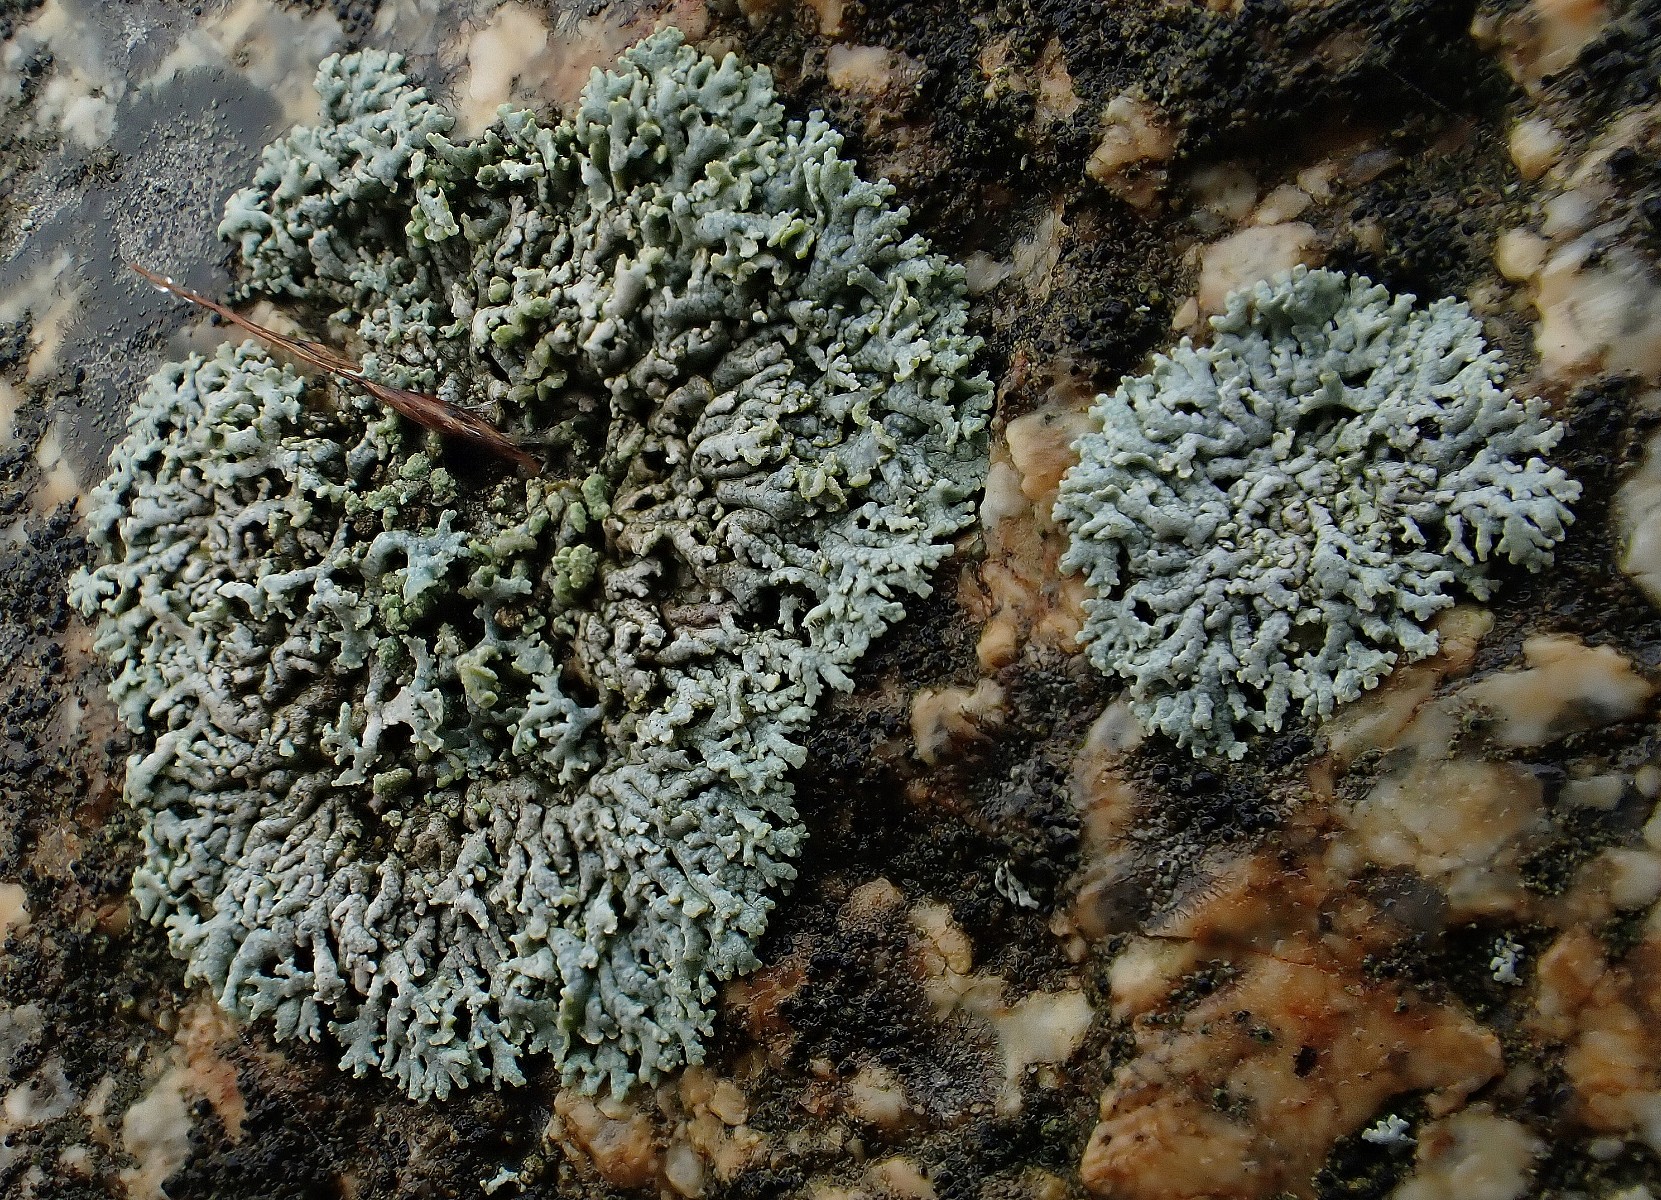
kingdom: Fungi
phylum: Ascomycota
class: Lecanoromycetes
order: Caliciales
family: Physciaceae
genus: Physcia
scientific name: Physcia caesia
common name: blågrå rosetlav
